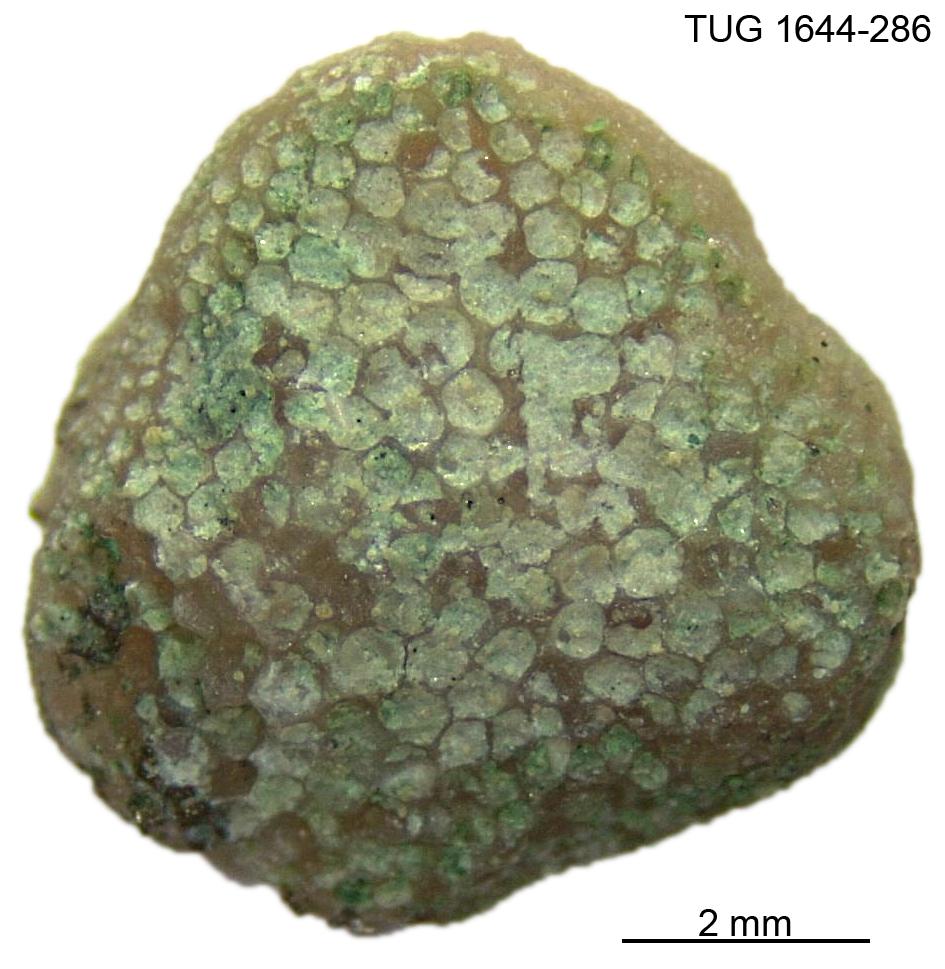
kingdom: Animalia
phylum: Bryozoa
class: Stenolaemata
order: Trepostomatida
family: Diplotrypidae
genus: Diplotrypa
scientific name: Diplotrypa
